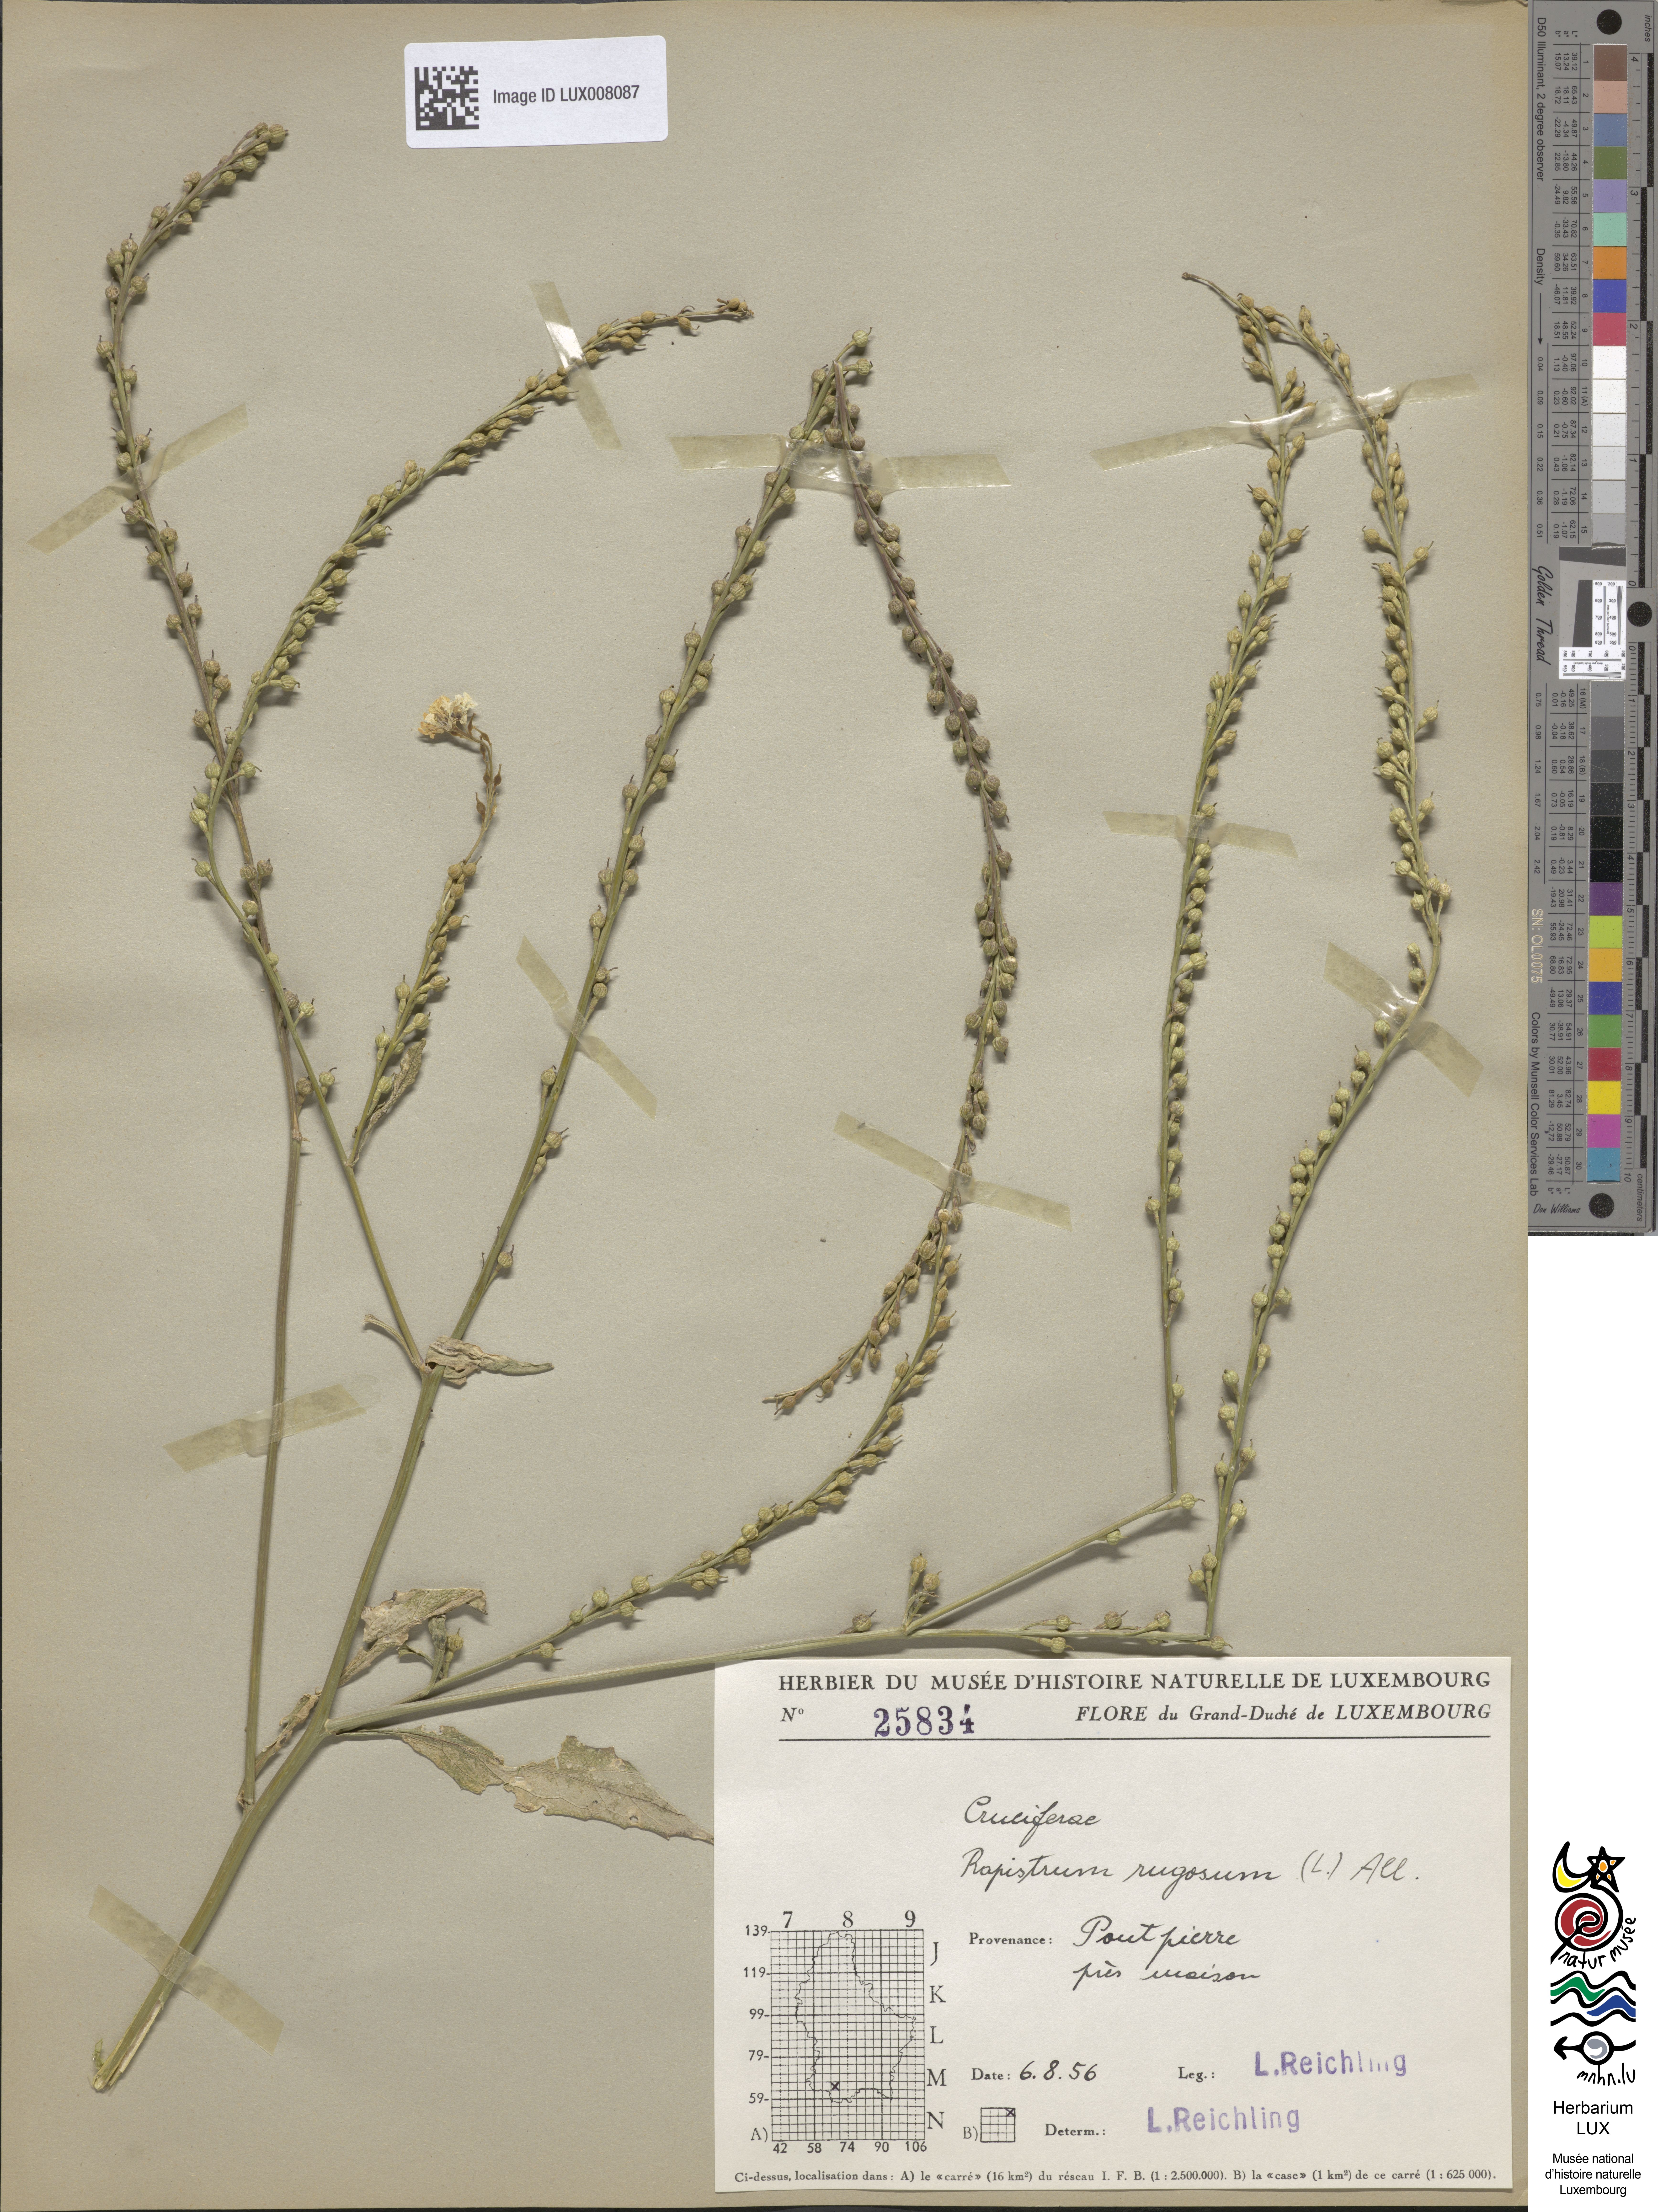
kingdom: Plantae
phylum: Tracheophyta
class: Magnoliopsida
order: Brassicales
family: Brassicaceae
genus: Rapistrum
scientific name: Rapistrum rugosum
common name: Annual bastardcabbage
